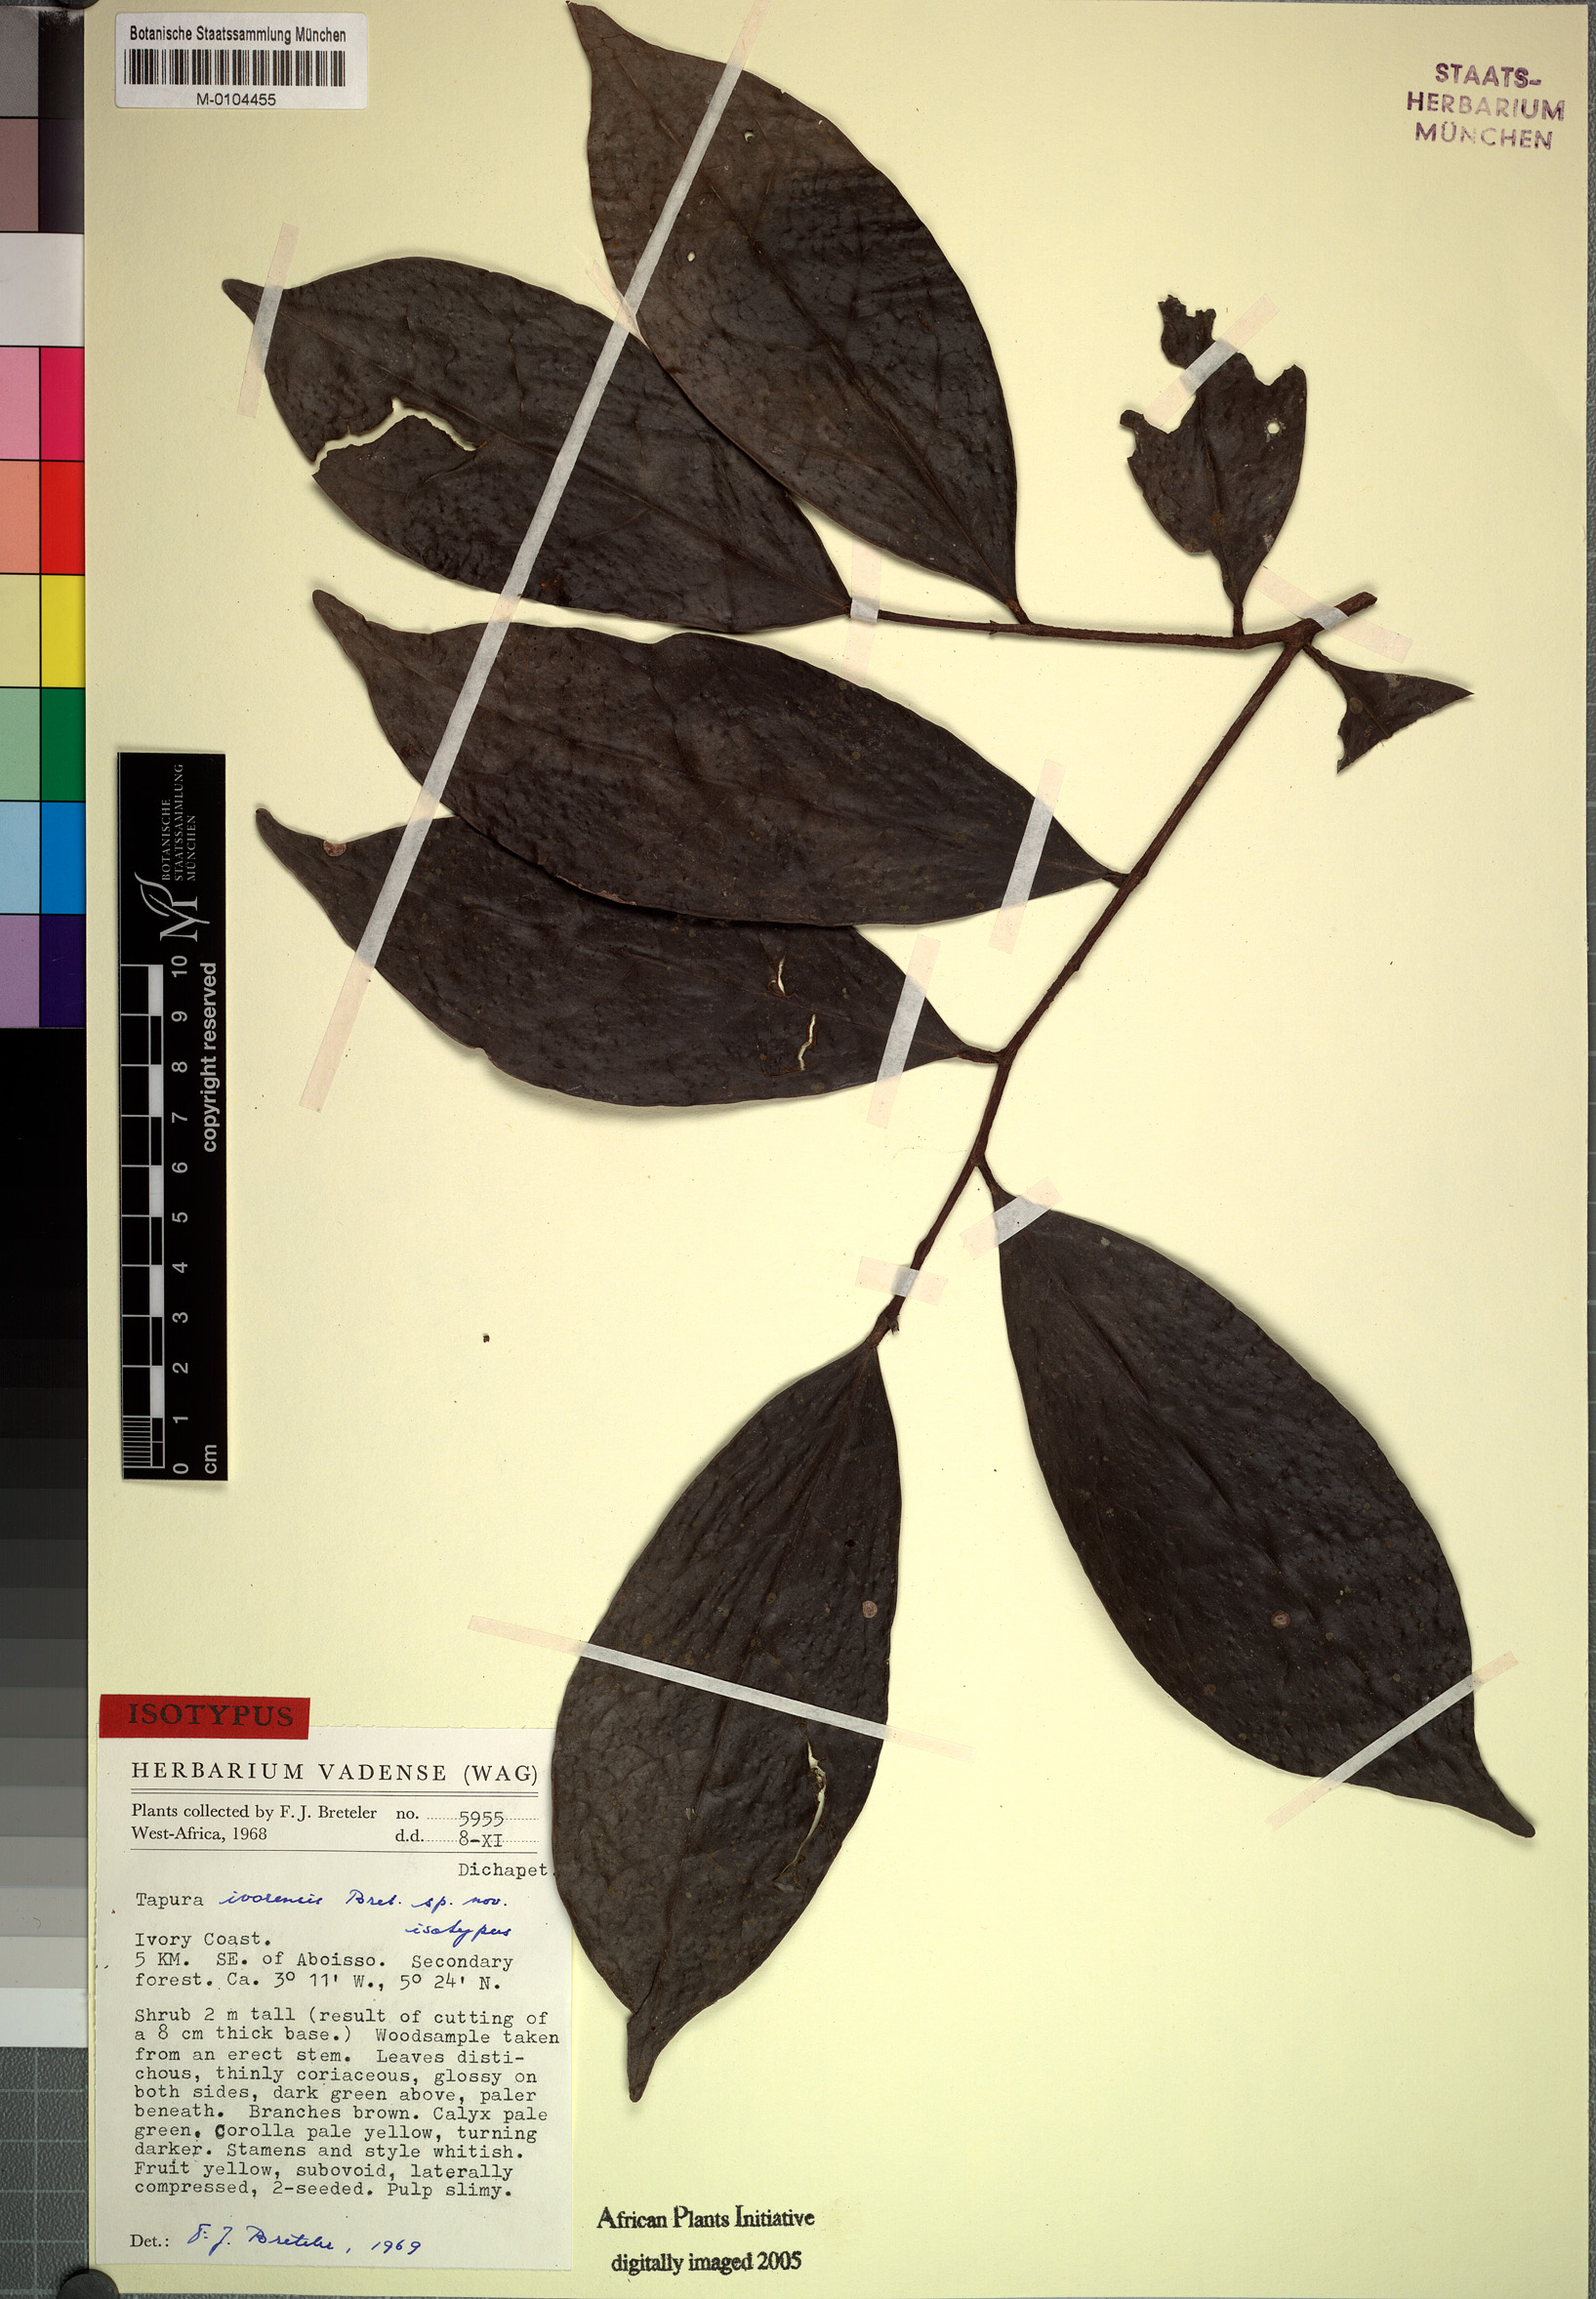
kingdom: Plantae
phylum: Tracheophyta
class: Magnoliopsida
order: Malpighiales
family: Dichapetalaceae
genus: Tapura
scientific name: Tapura ivorensis
